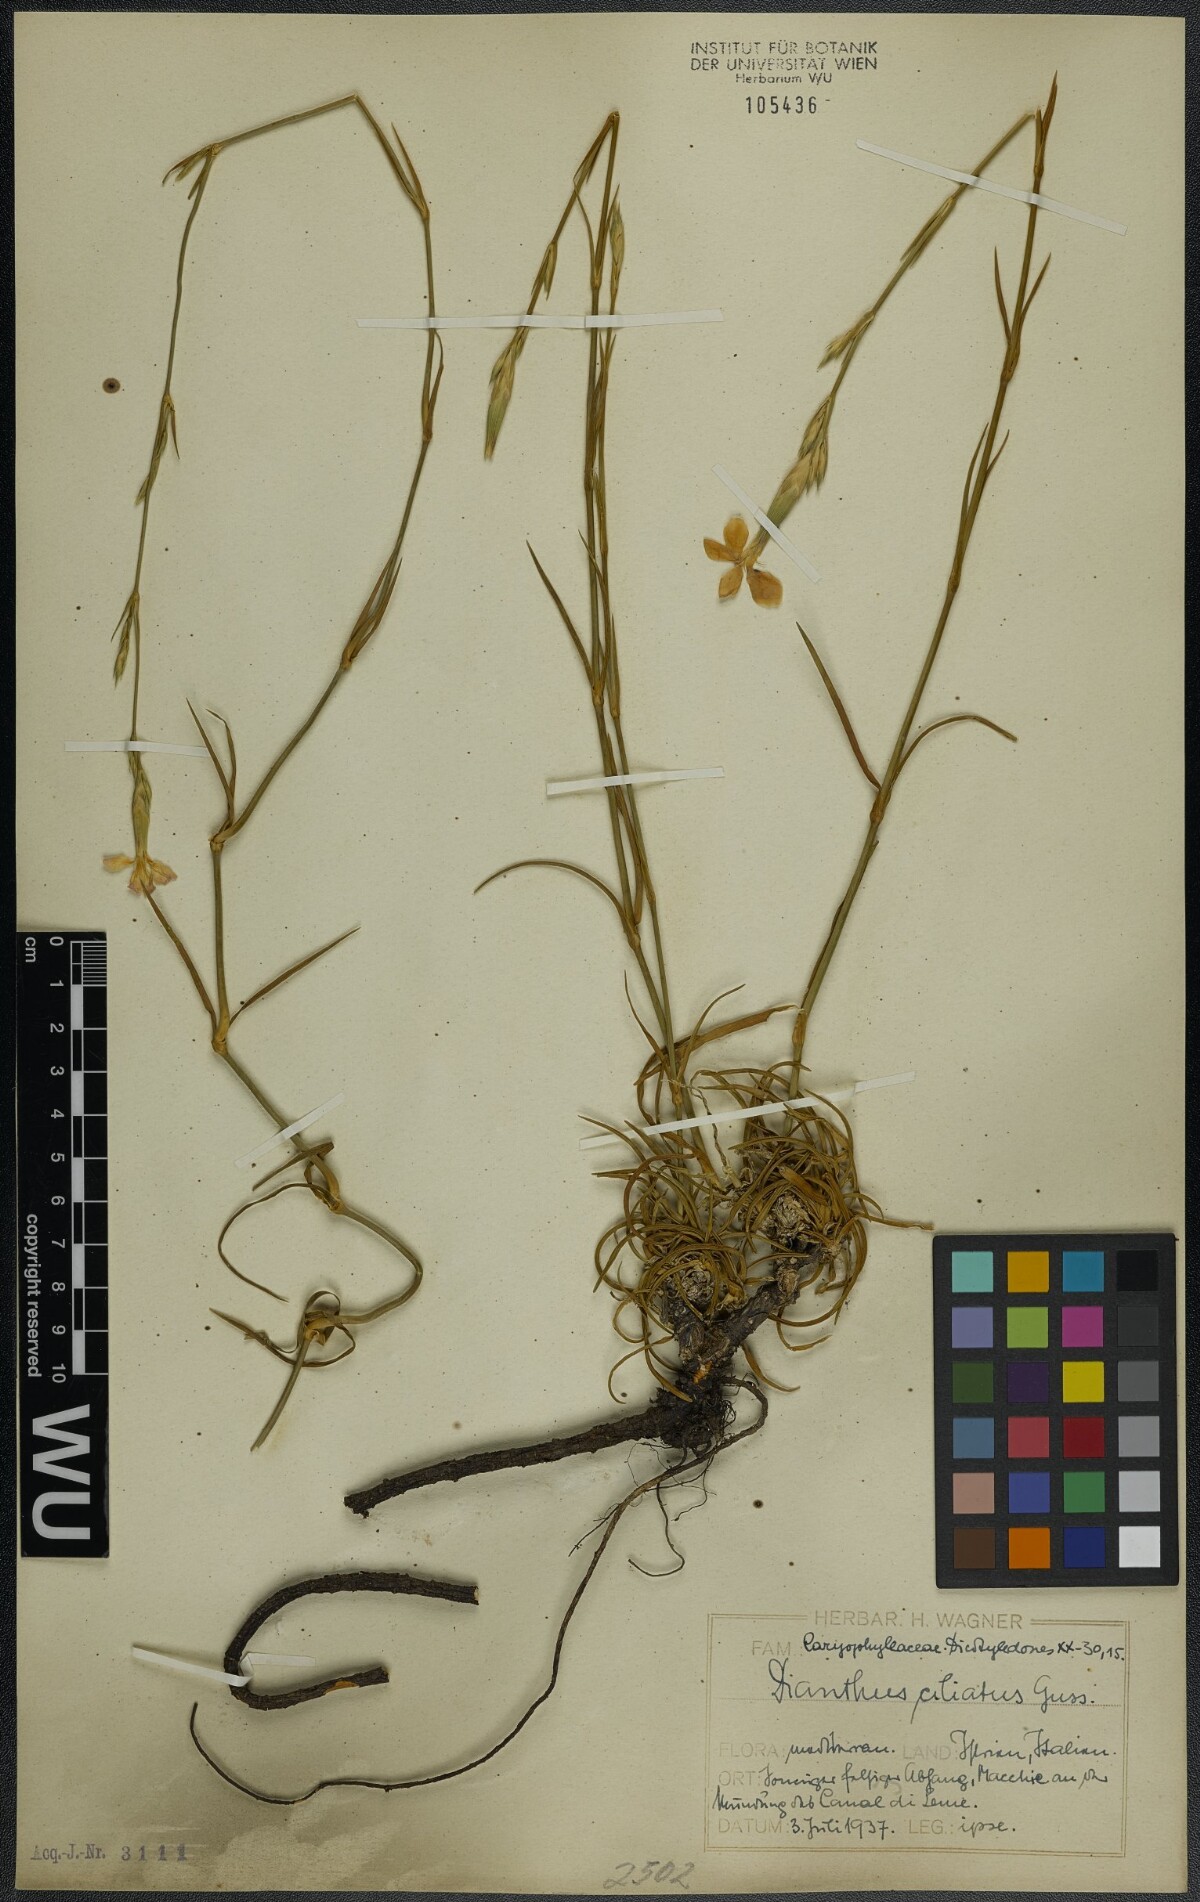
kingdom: Plantae
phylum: Tracheophyta
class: Magnoliopsida
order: Caryophyllales
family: Caryophyllaceae
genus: Dianthus
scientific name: Dianthus ciliatus
